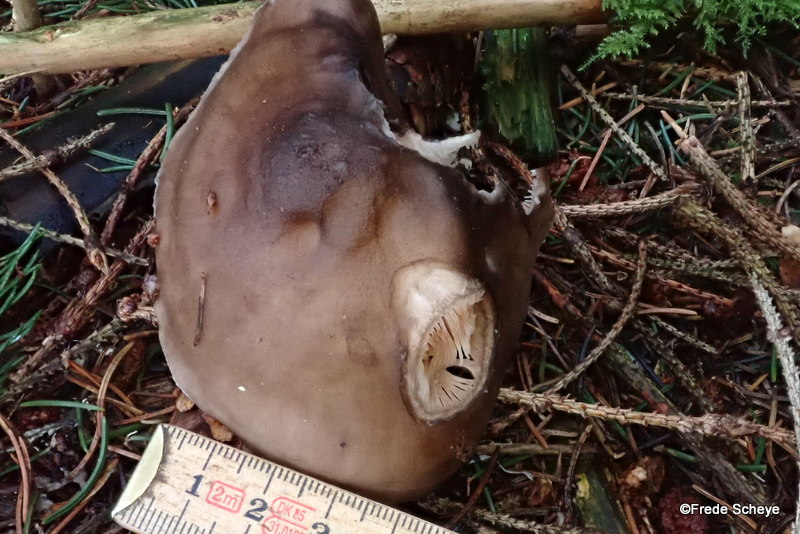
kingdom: Fungi
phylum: Basidiomycota
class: Agaricomycetes
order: Agaricales
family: Pluteaceae
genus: Pluteus
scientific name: Pluteus cervinus
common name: sodfarvet skærmhat
